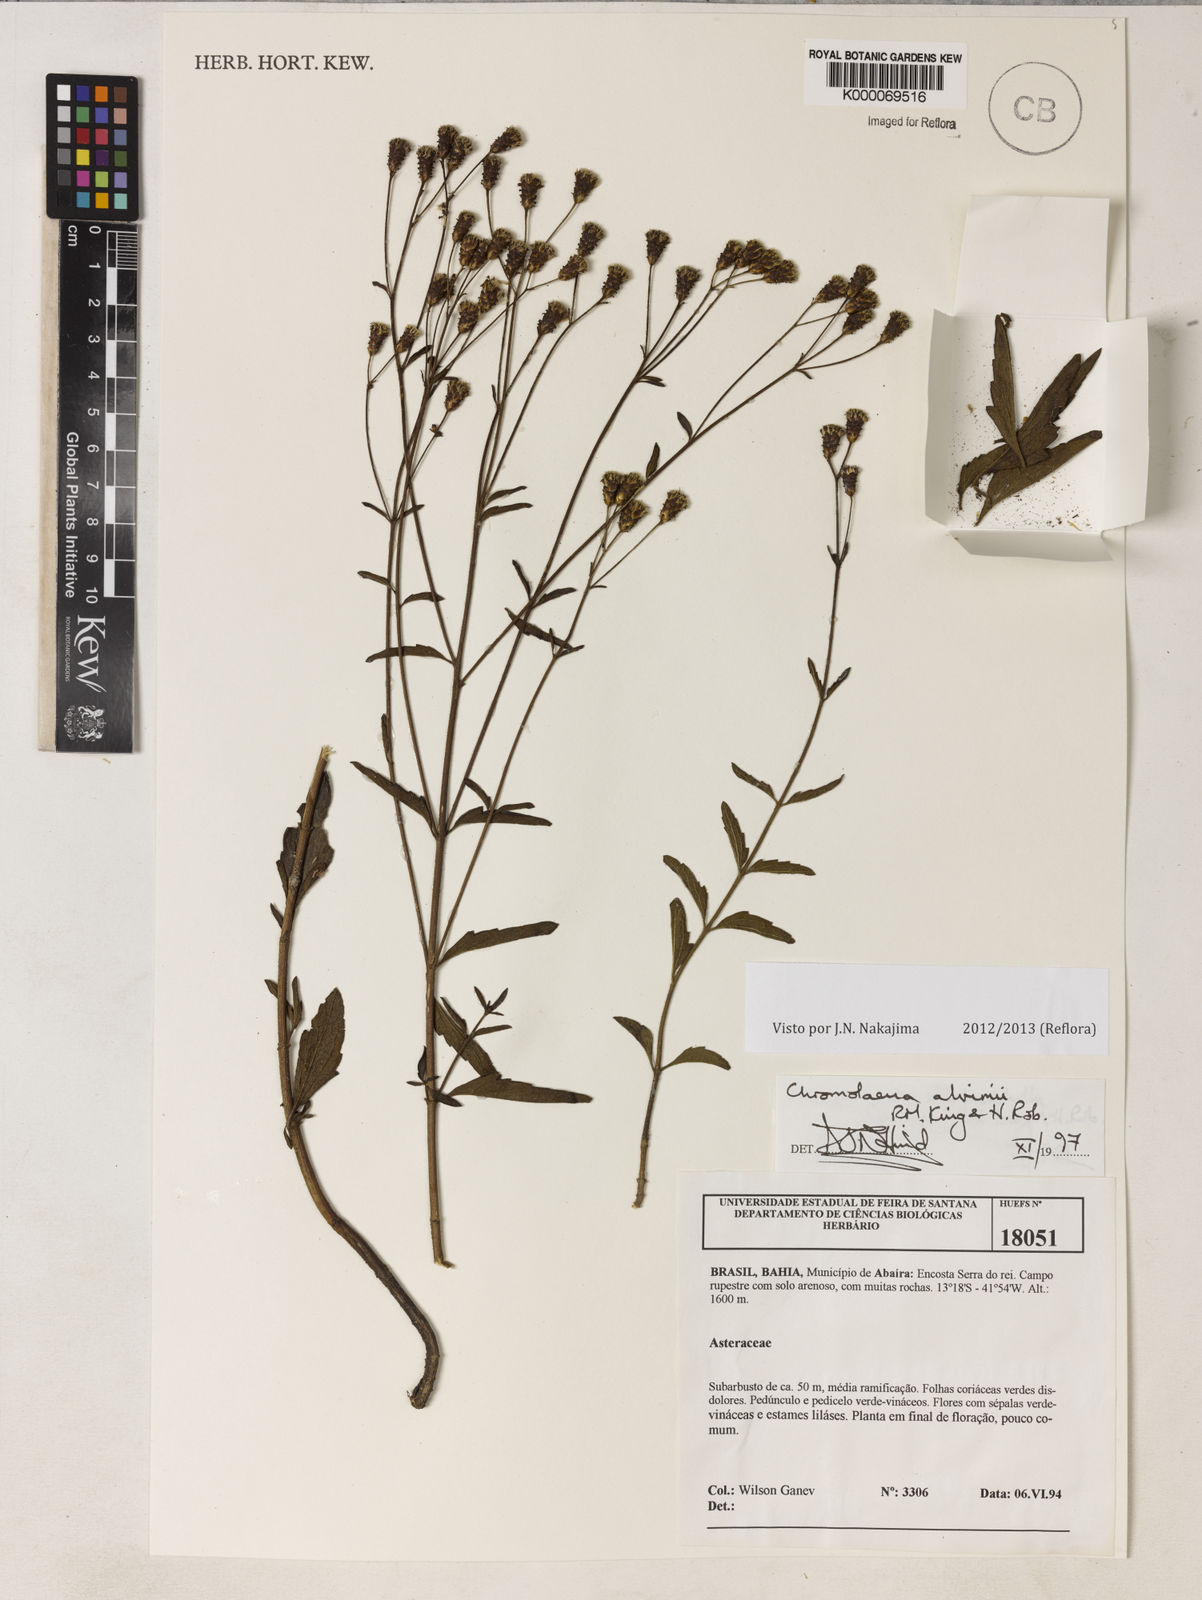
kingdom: Plantae
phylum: Tracheophyta
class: Magnoliopsida
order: Asterales
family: Asteraceae
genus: Chromolaena
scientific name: Chromolaena alvimii
